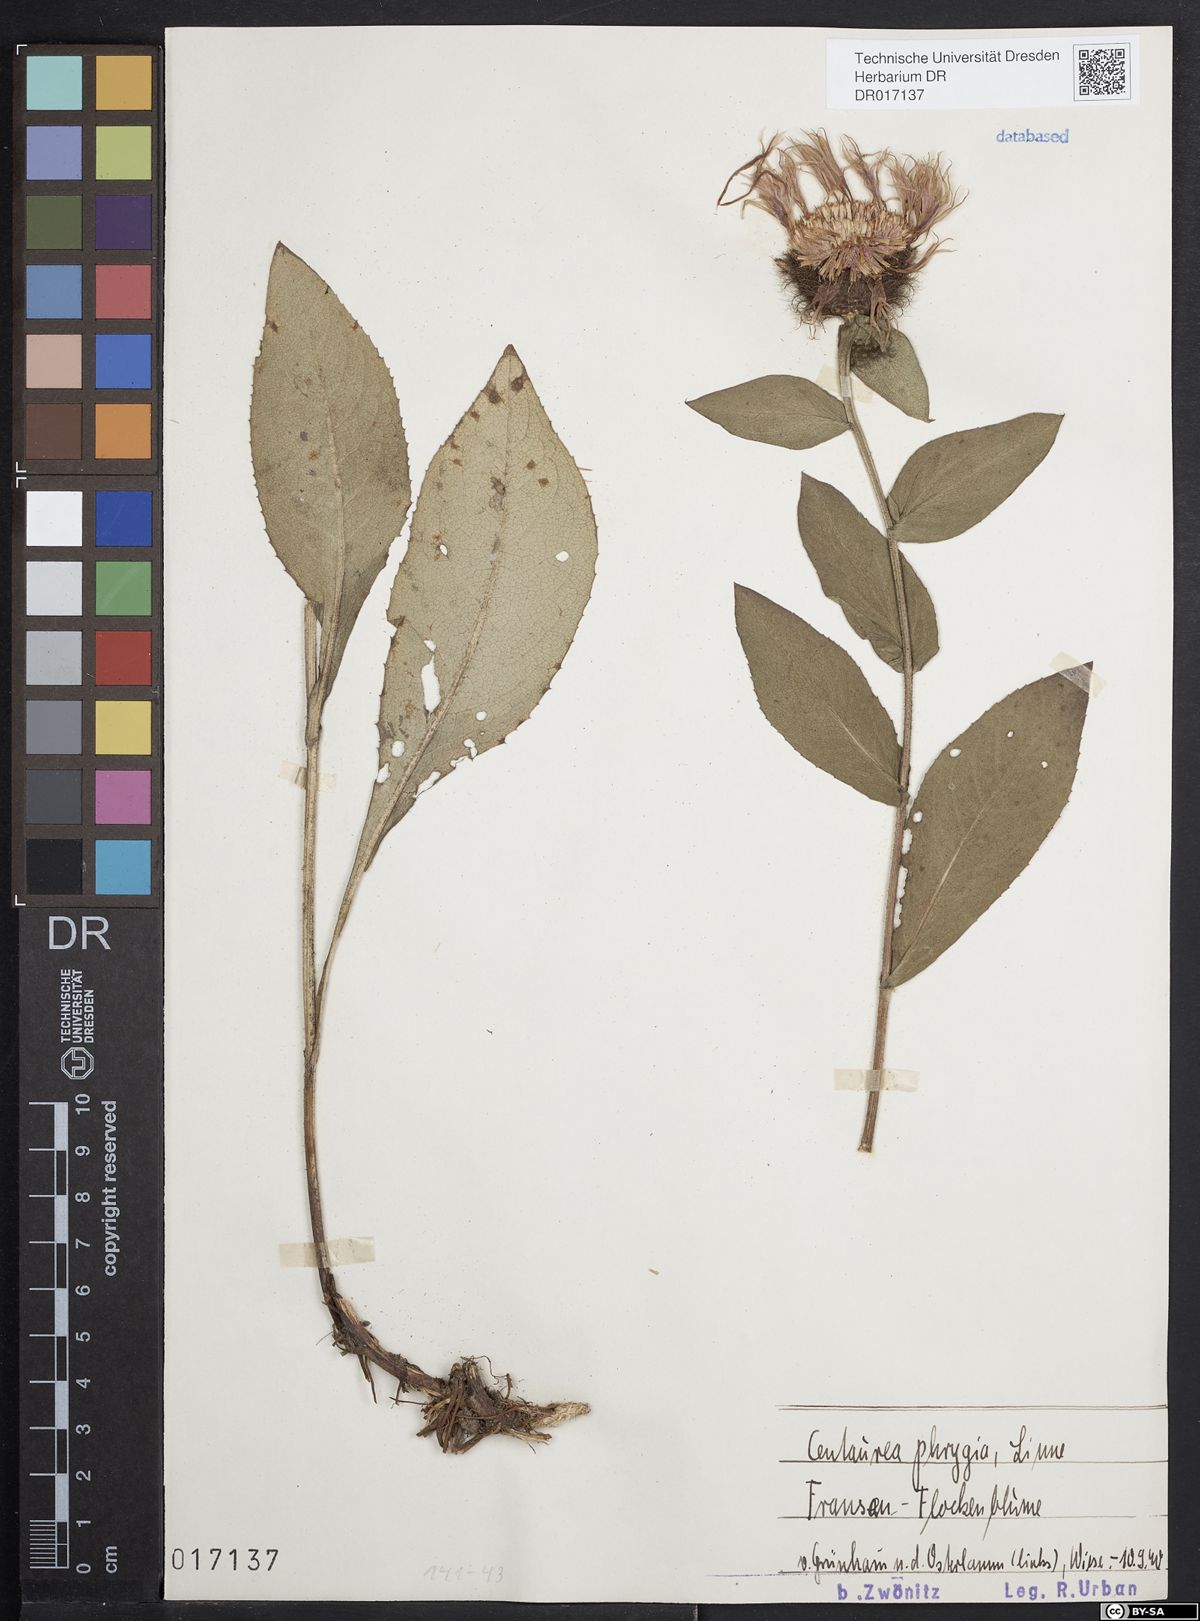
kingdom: Plantae
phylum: Tracheophyta
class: Magnoliopsida
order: Asterales
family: Asteraceae
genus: Centaurea
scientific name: Centaurea pseudophrygia
